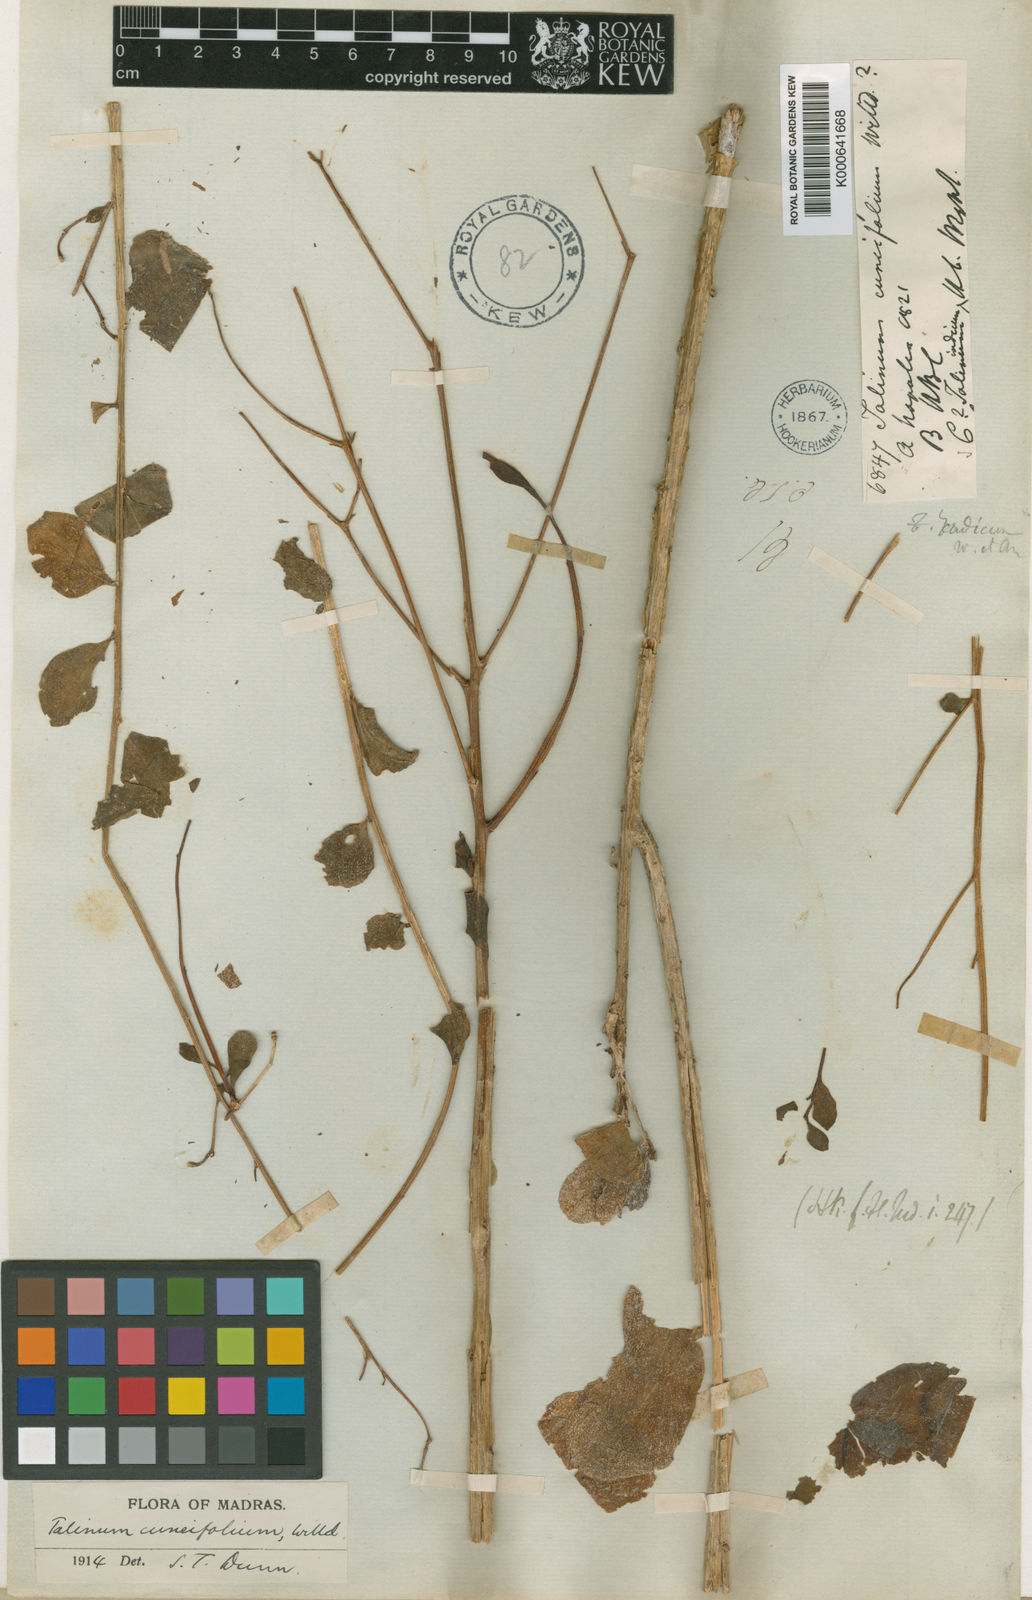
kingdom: Plantae
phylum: Tracheophyta
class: Magnoliopsida
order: Caryophyllales
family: Talinaceae
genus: Talinum
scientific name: Talinum portulacifolium
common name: Flameflower
